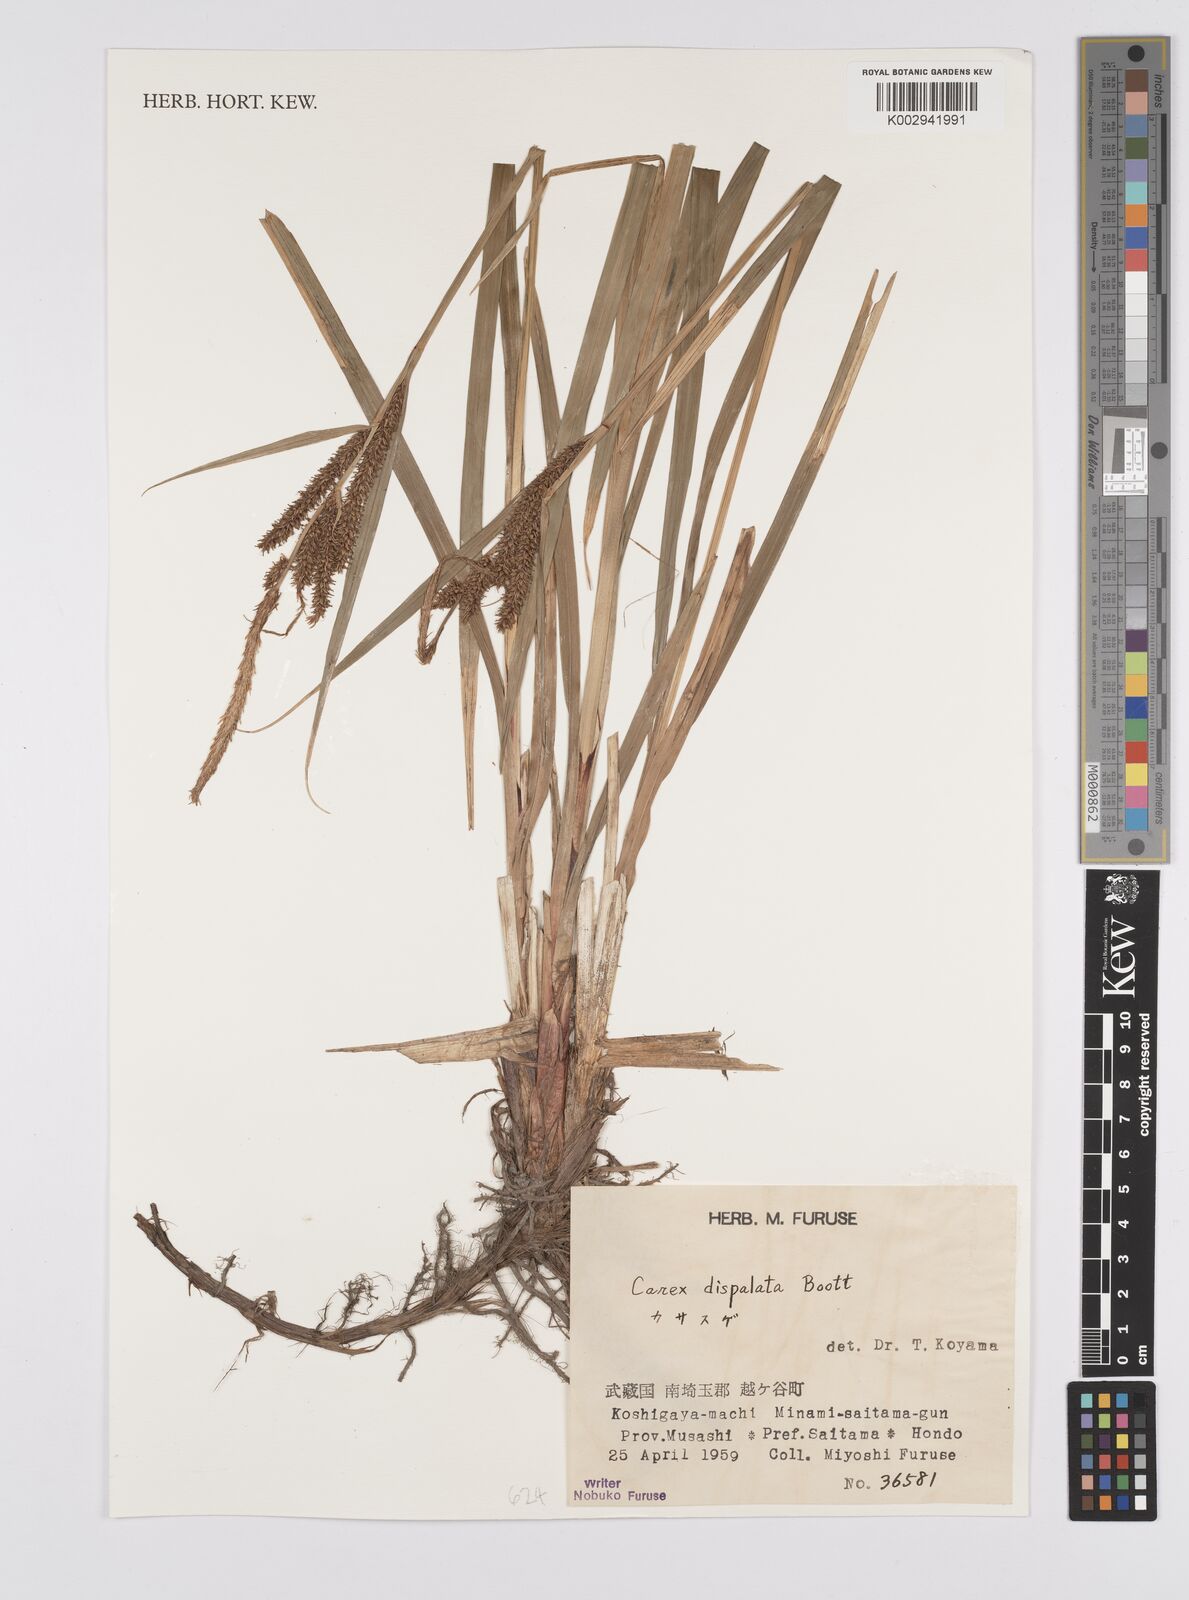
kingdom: Plantae
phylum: Tracheophyta
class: Liliopsida
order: Poales
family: Cyperaceae
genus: Carex
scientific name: Carex dispalata
